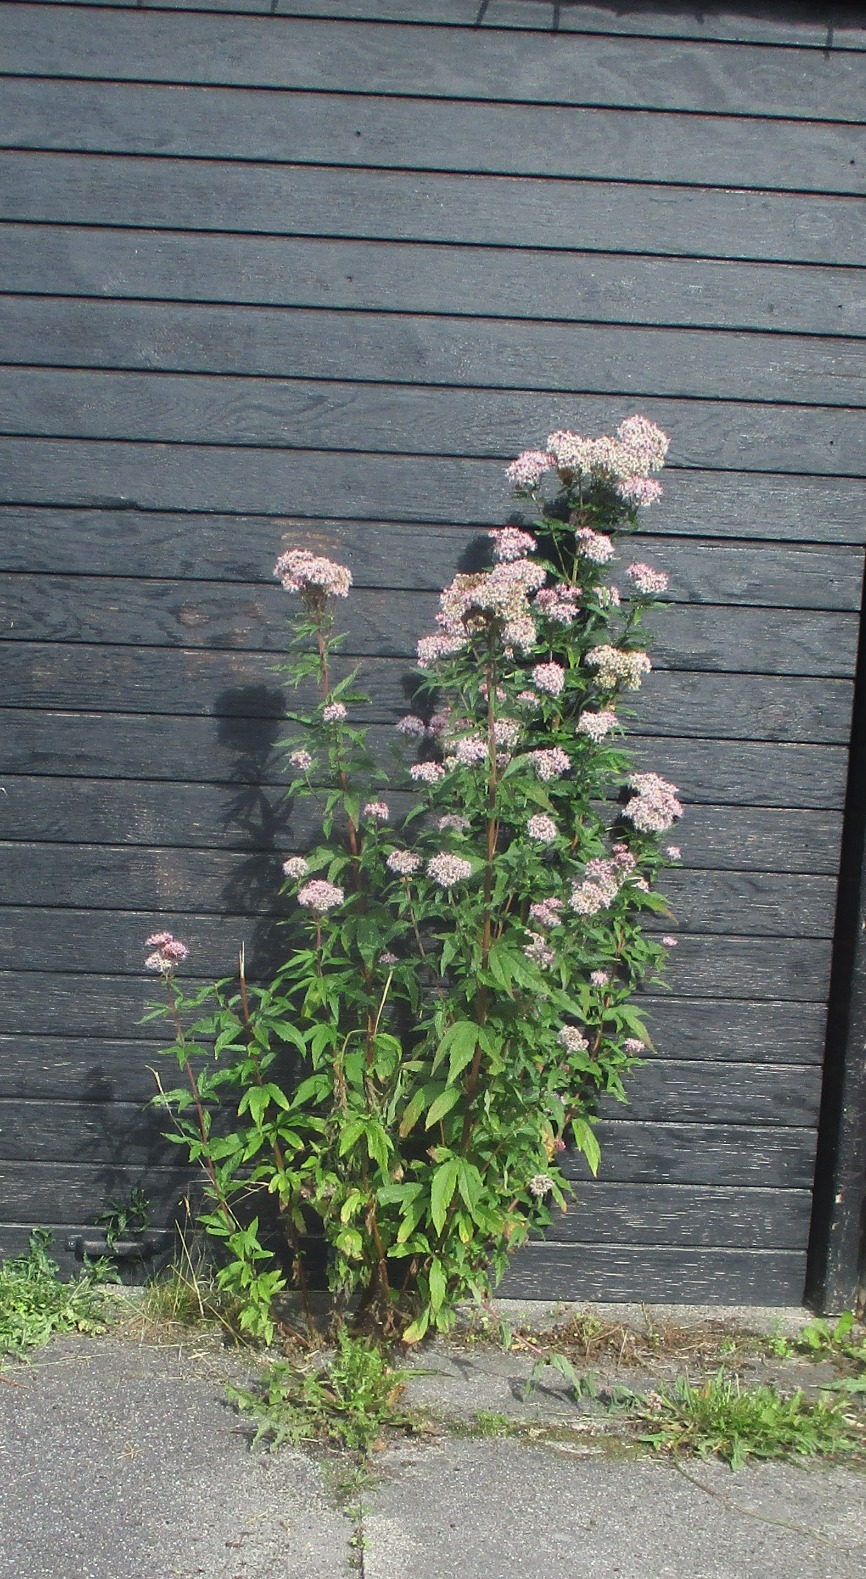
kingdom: Plantae
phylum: Tracheophyta
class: Magnoliopsida
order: Asterales
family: Asteraceae
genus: Eupatorium
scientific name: Eupatorium cannabinum
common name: Hjortetrøst
